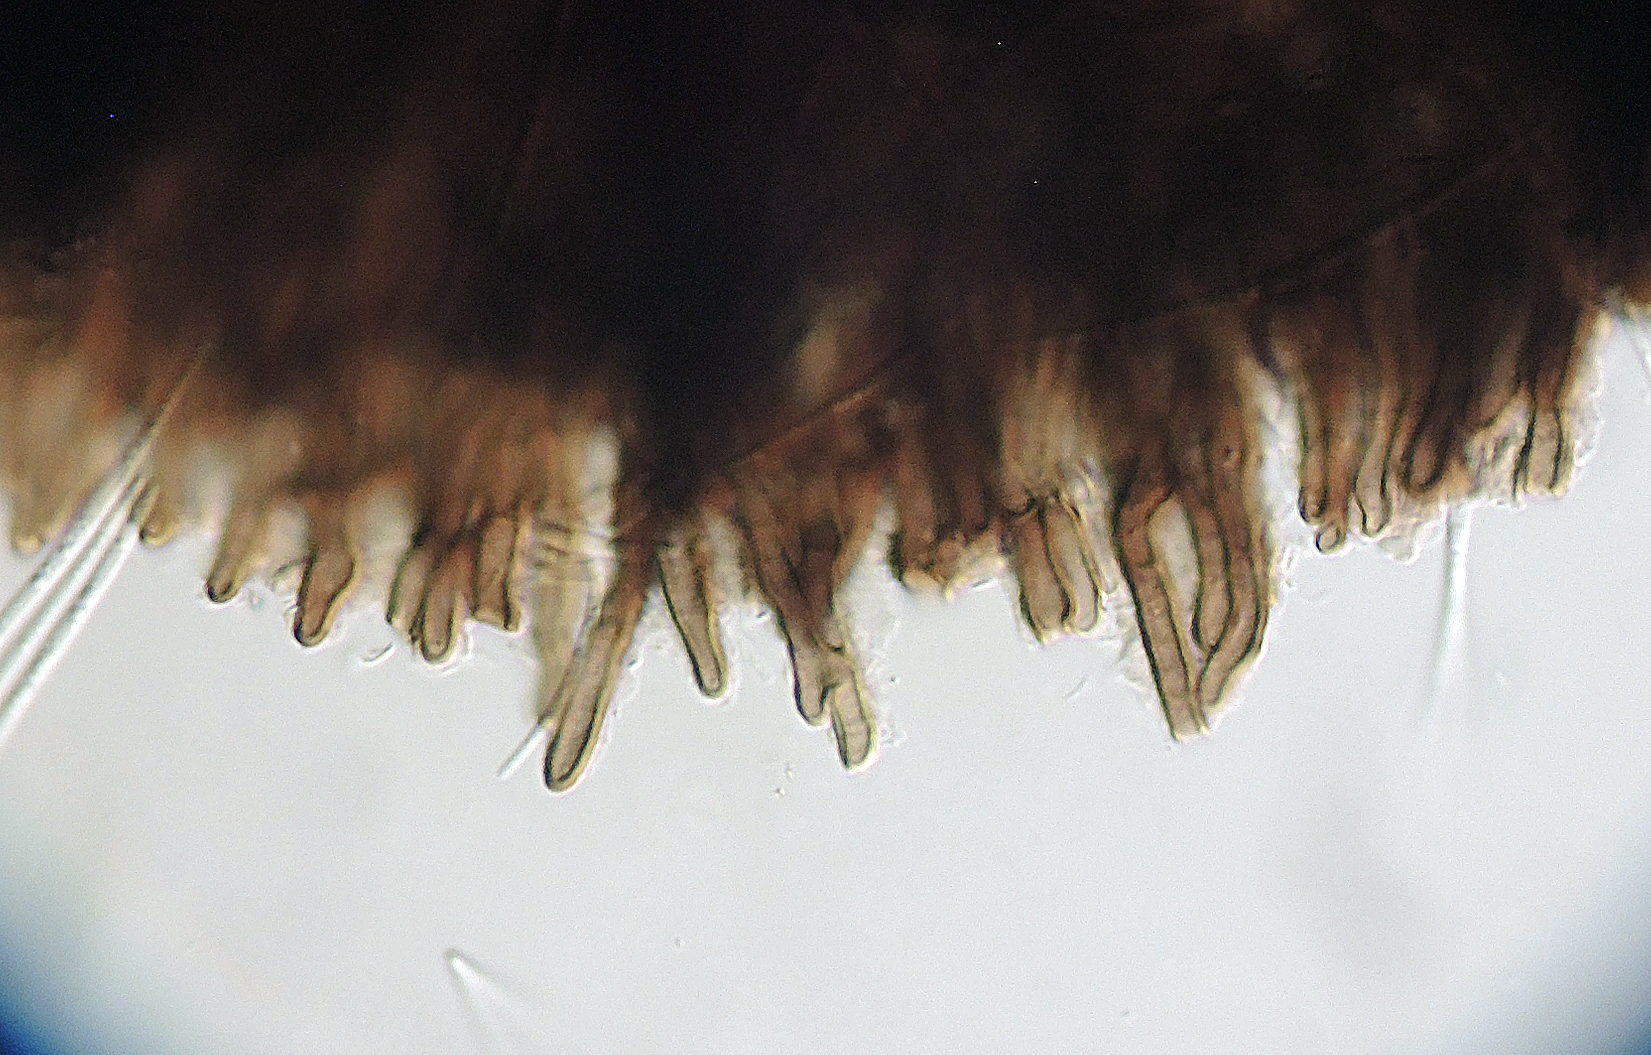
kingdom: Fungi
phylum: Ascomycota
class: Leotiomycetes
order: Rhytismatales
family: Rhytismataceae
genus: Lophodermium
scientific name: Lophodermium apiculatum
